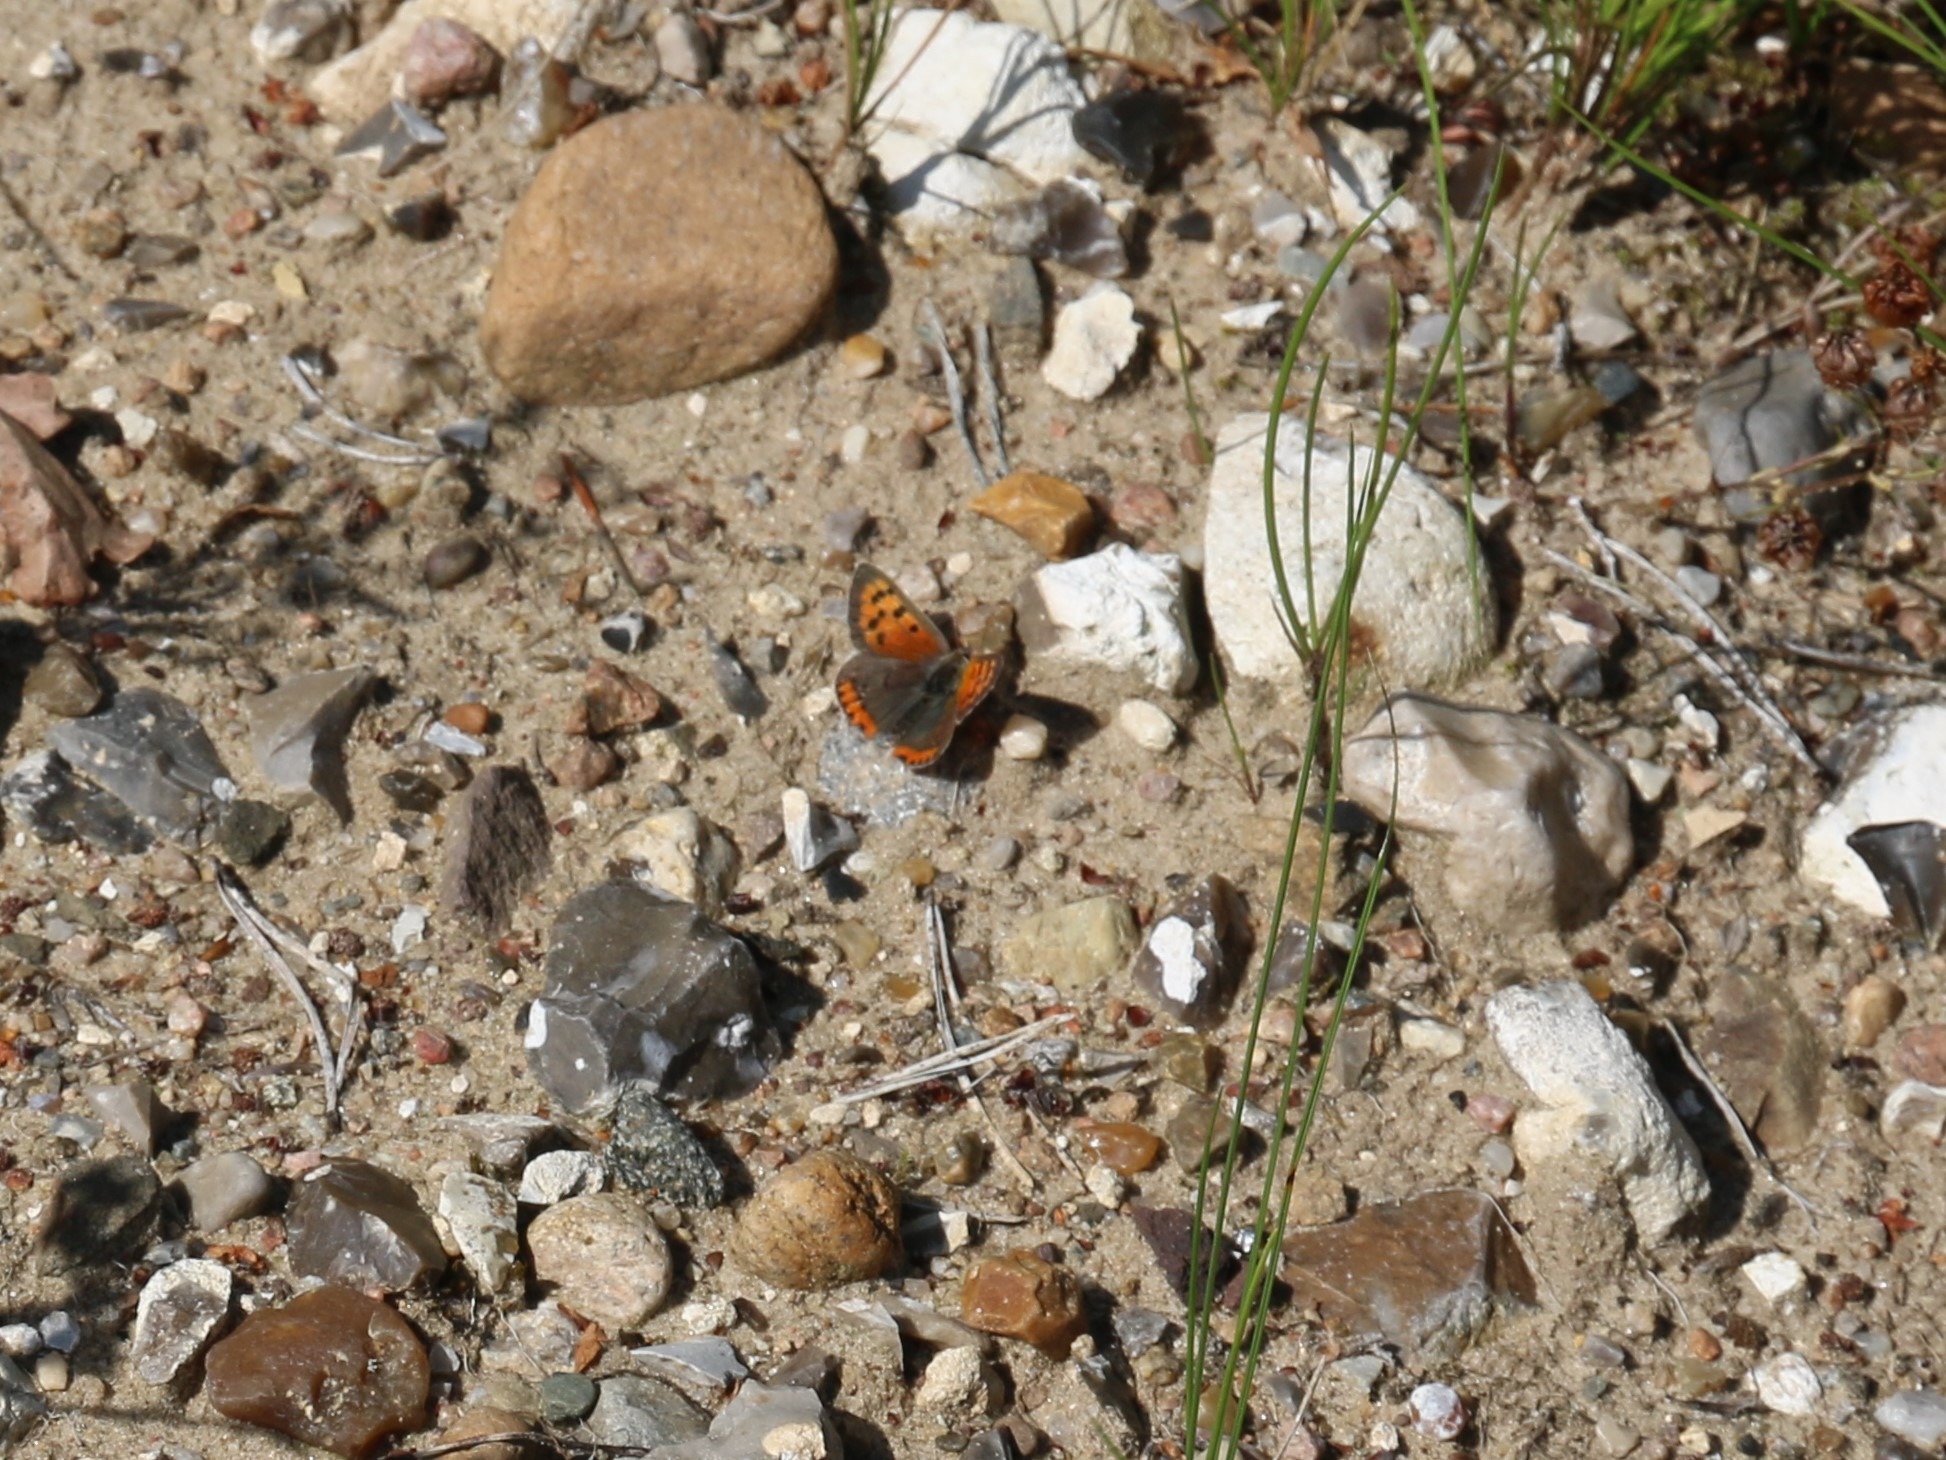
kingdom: Animalia
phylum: Arthropoda
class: Insecta
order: Lepidoptera
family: Lycaenidae
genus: Lycaena
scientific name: Lycaena phlaeas
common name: Lille ildfugl
